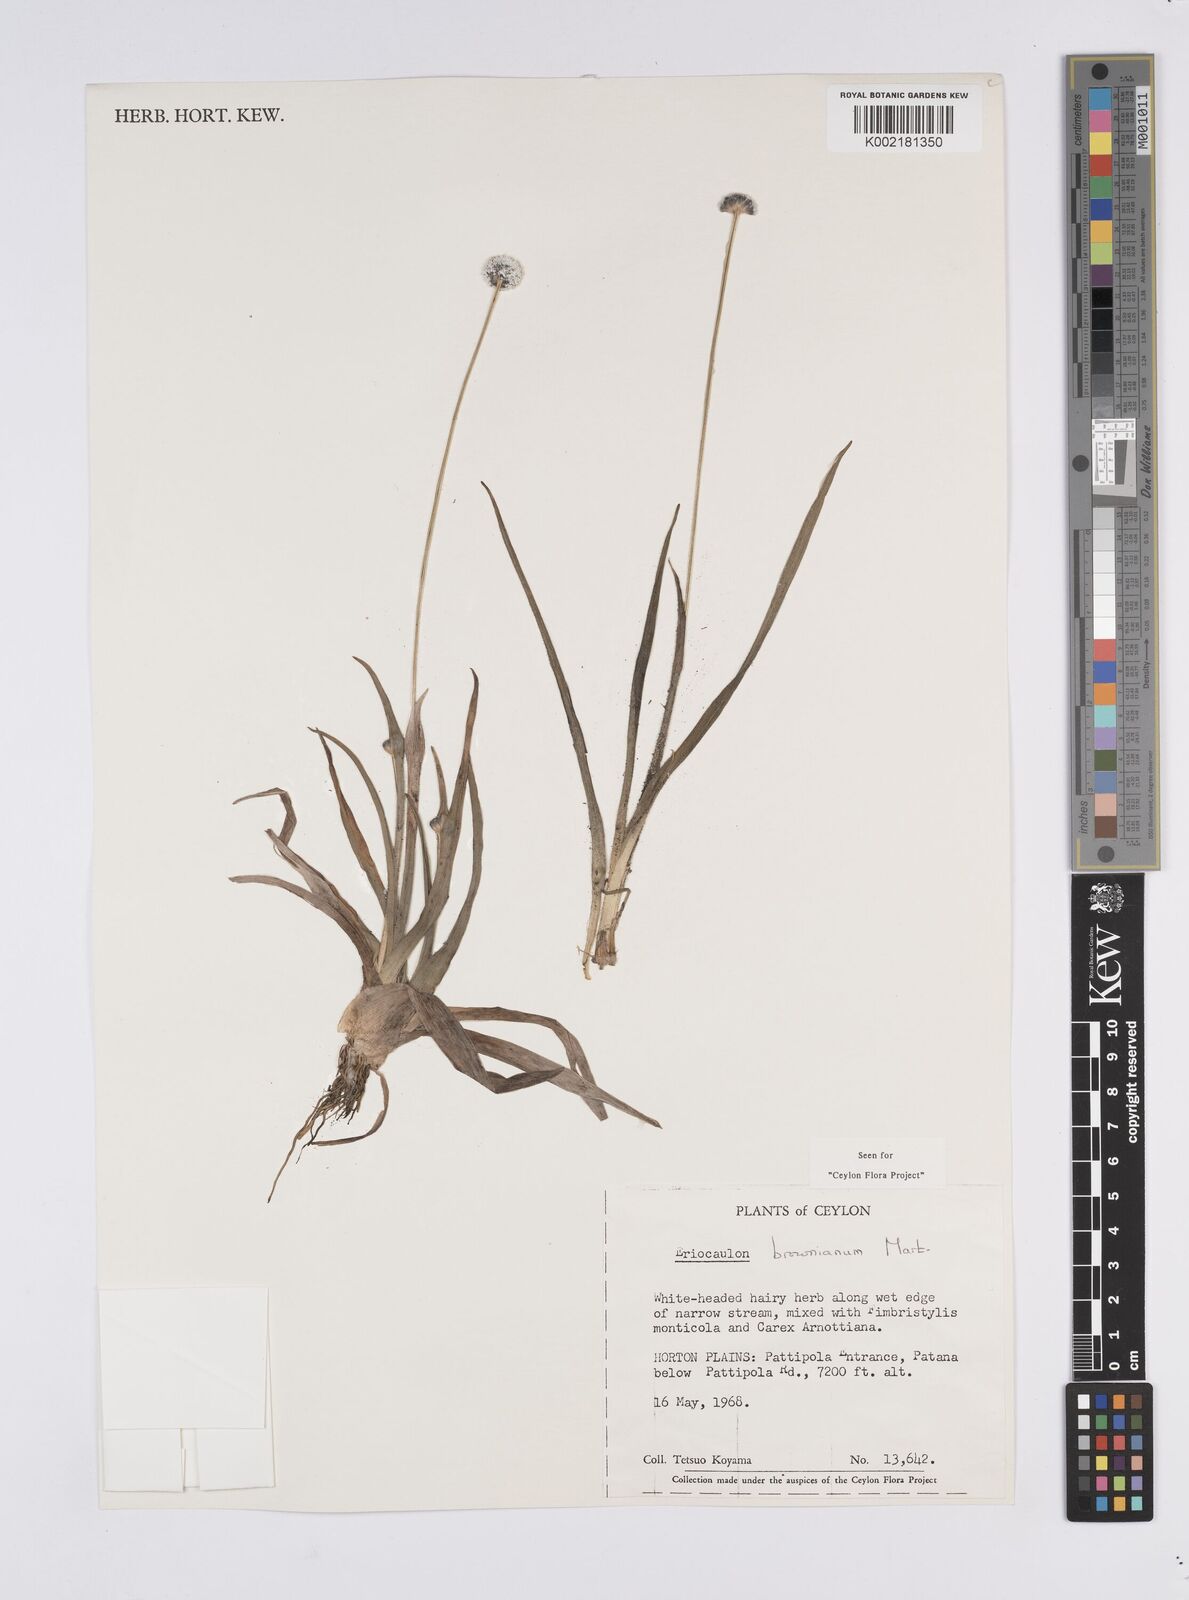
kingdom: Plantae
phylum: Tracheophyta
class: Liliopsida
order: Poales
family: Eriocaulaceae
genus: Eriocaulon
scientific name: Eriocaulon brownianum
